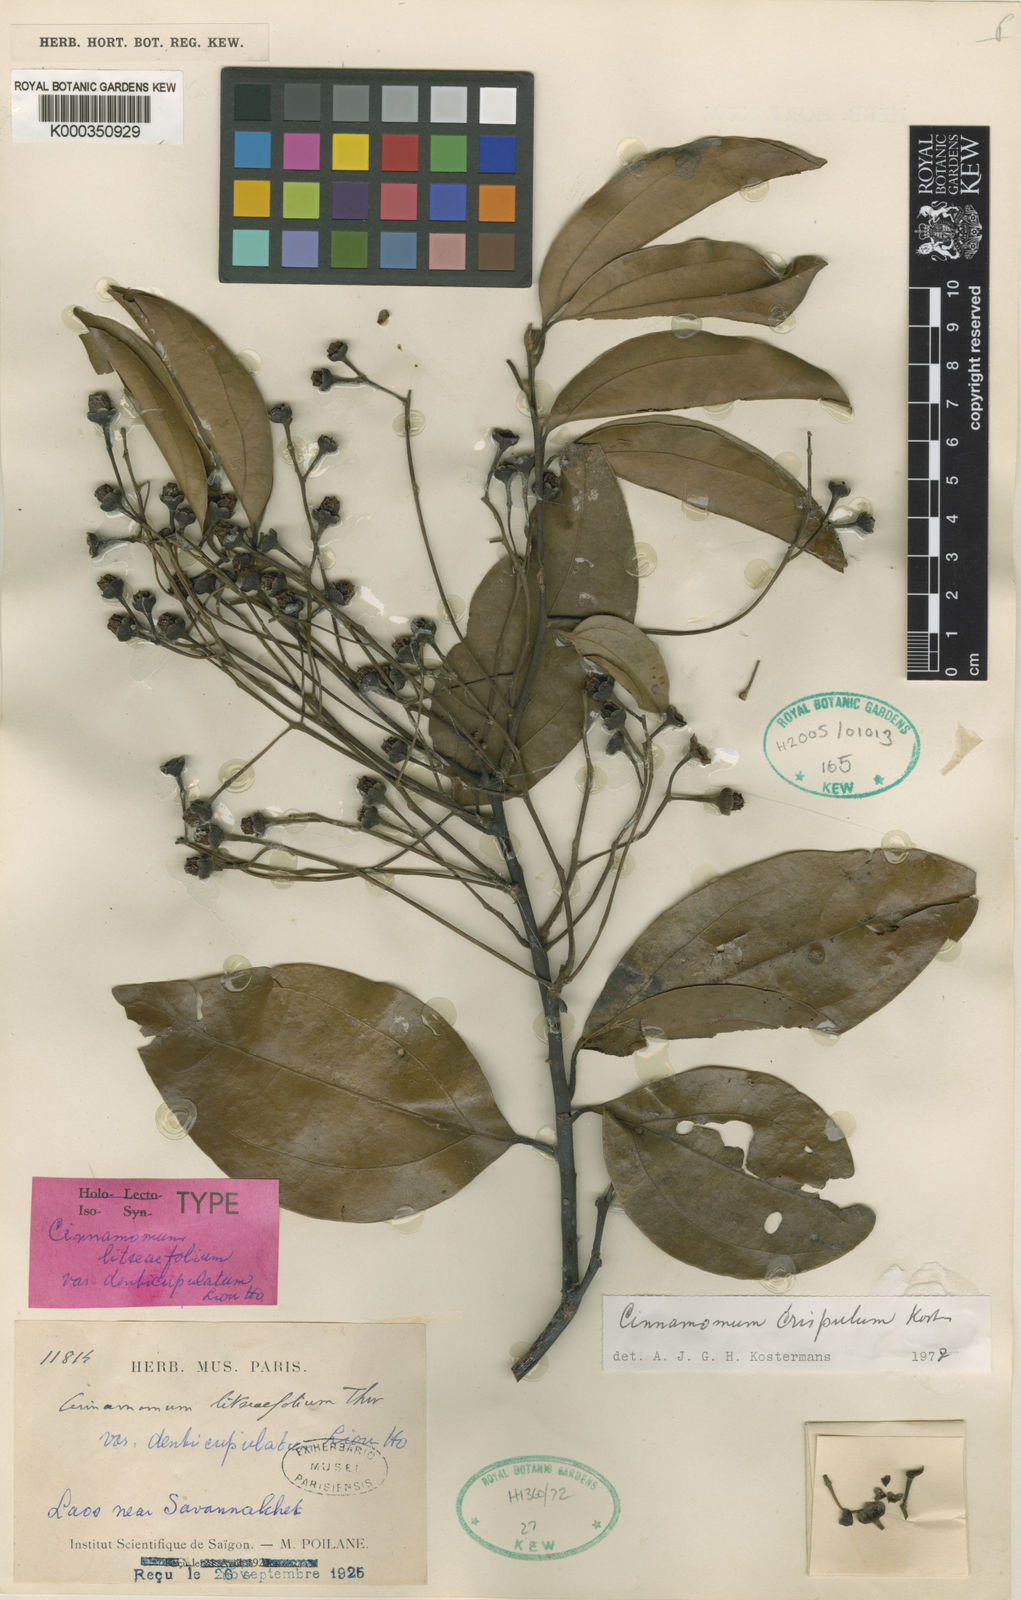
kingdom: Plantae
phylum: Tracheophyta
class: Magnoliopsida
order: Laurales
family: Lauraceae
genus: Cinnamomum
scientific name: Cinnamomum
